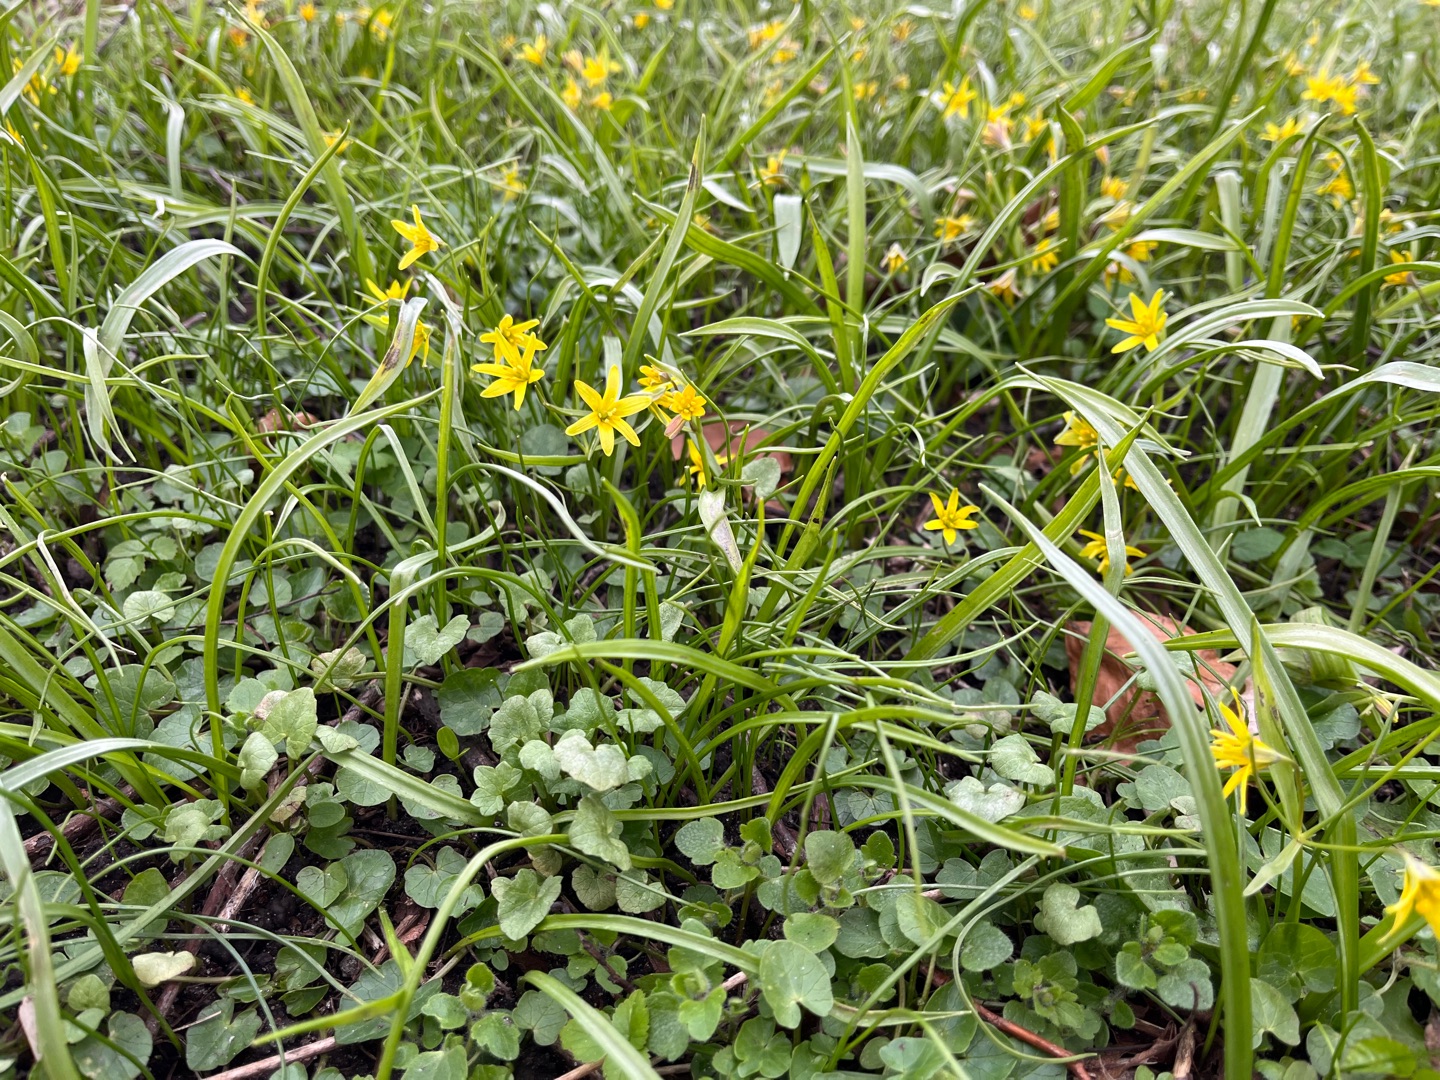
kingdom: Plantae
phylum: Tracheophyta
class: Liliopsida
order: Liliales
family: Liliaceae
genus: Gagea
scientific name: Gagea lutea
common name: Almindelig guldstjerne
